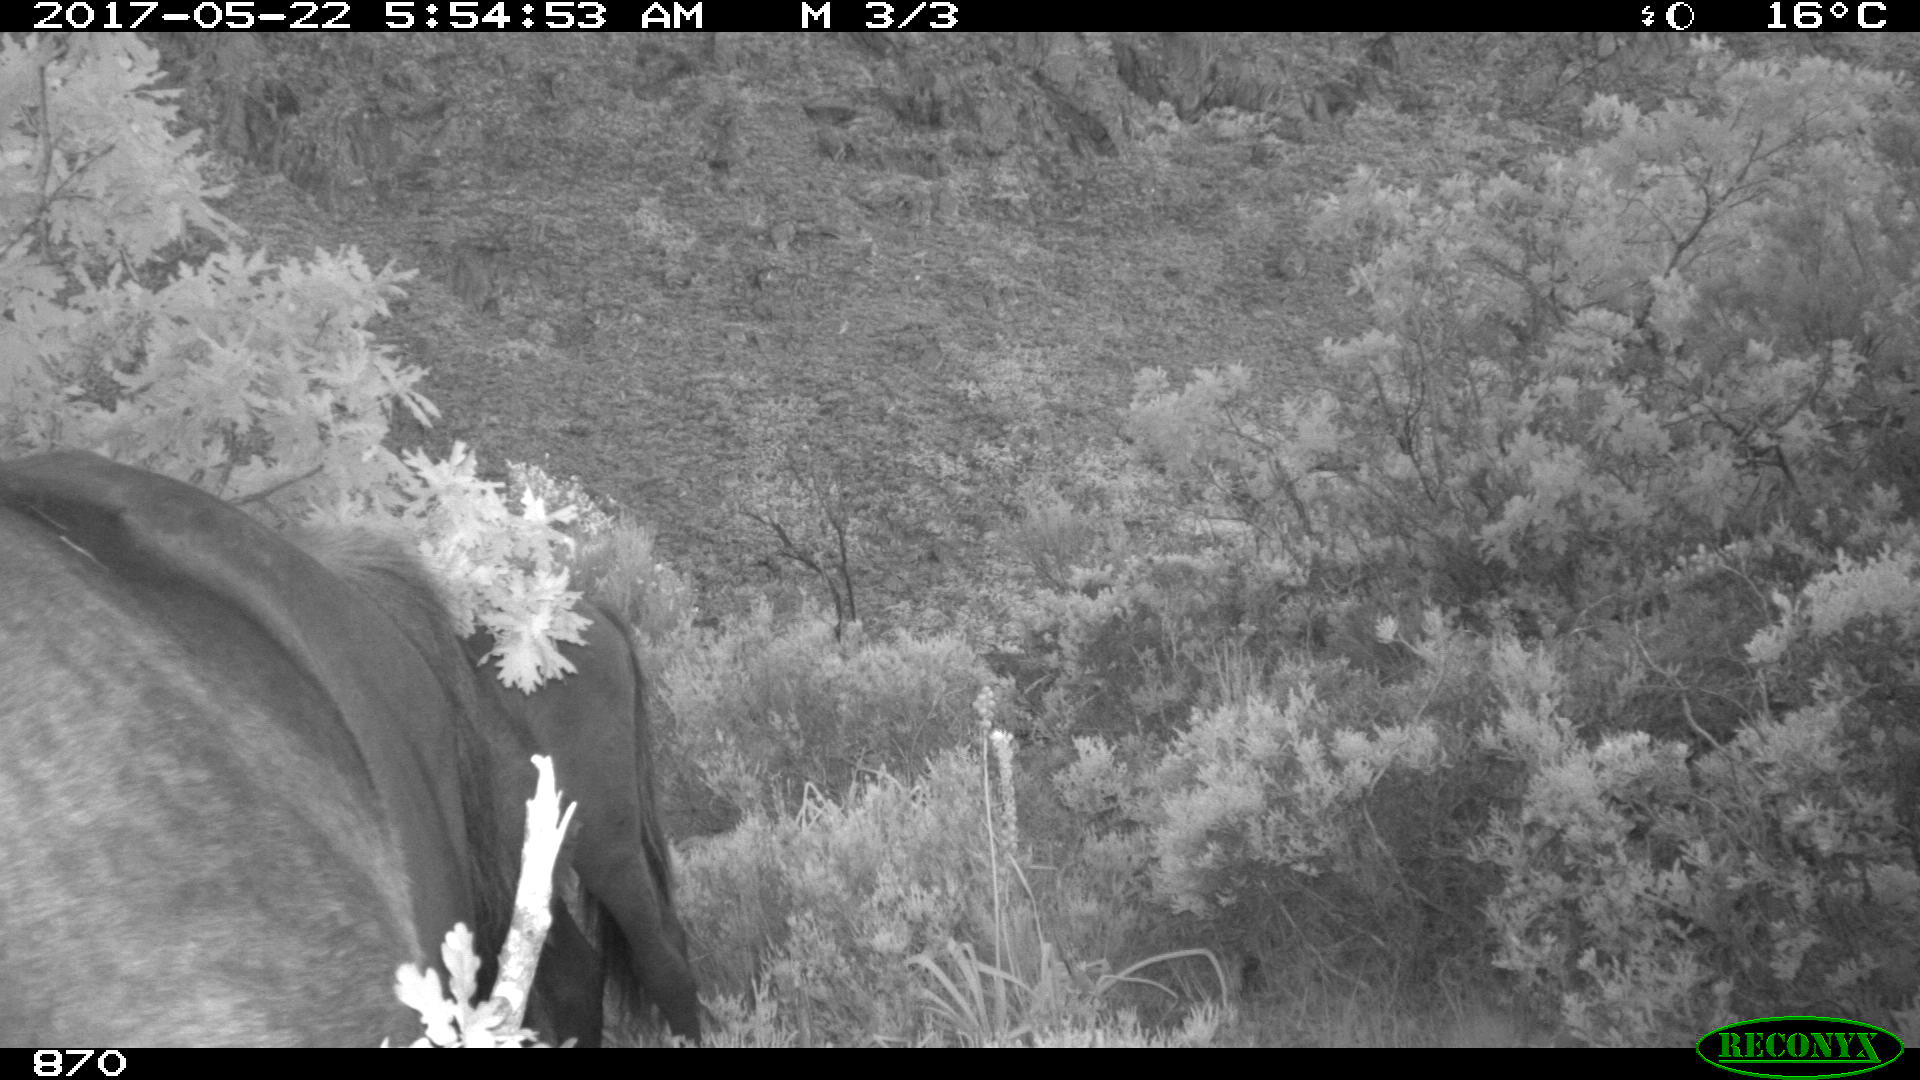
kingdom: Animalia
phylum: Chordata
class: Mammalia
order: Perissodactyla
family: Equidae
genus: Equus
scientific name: Equus caballus
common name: Horse
